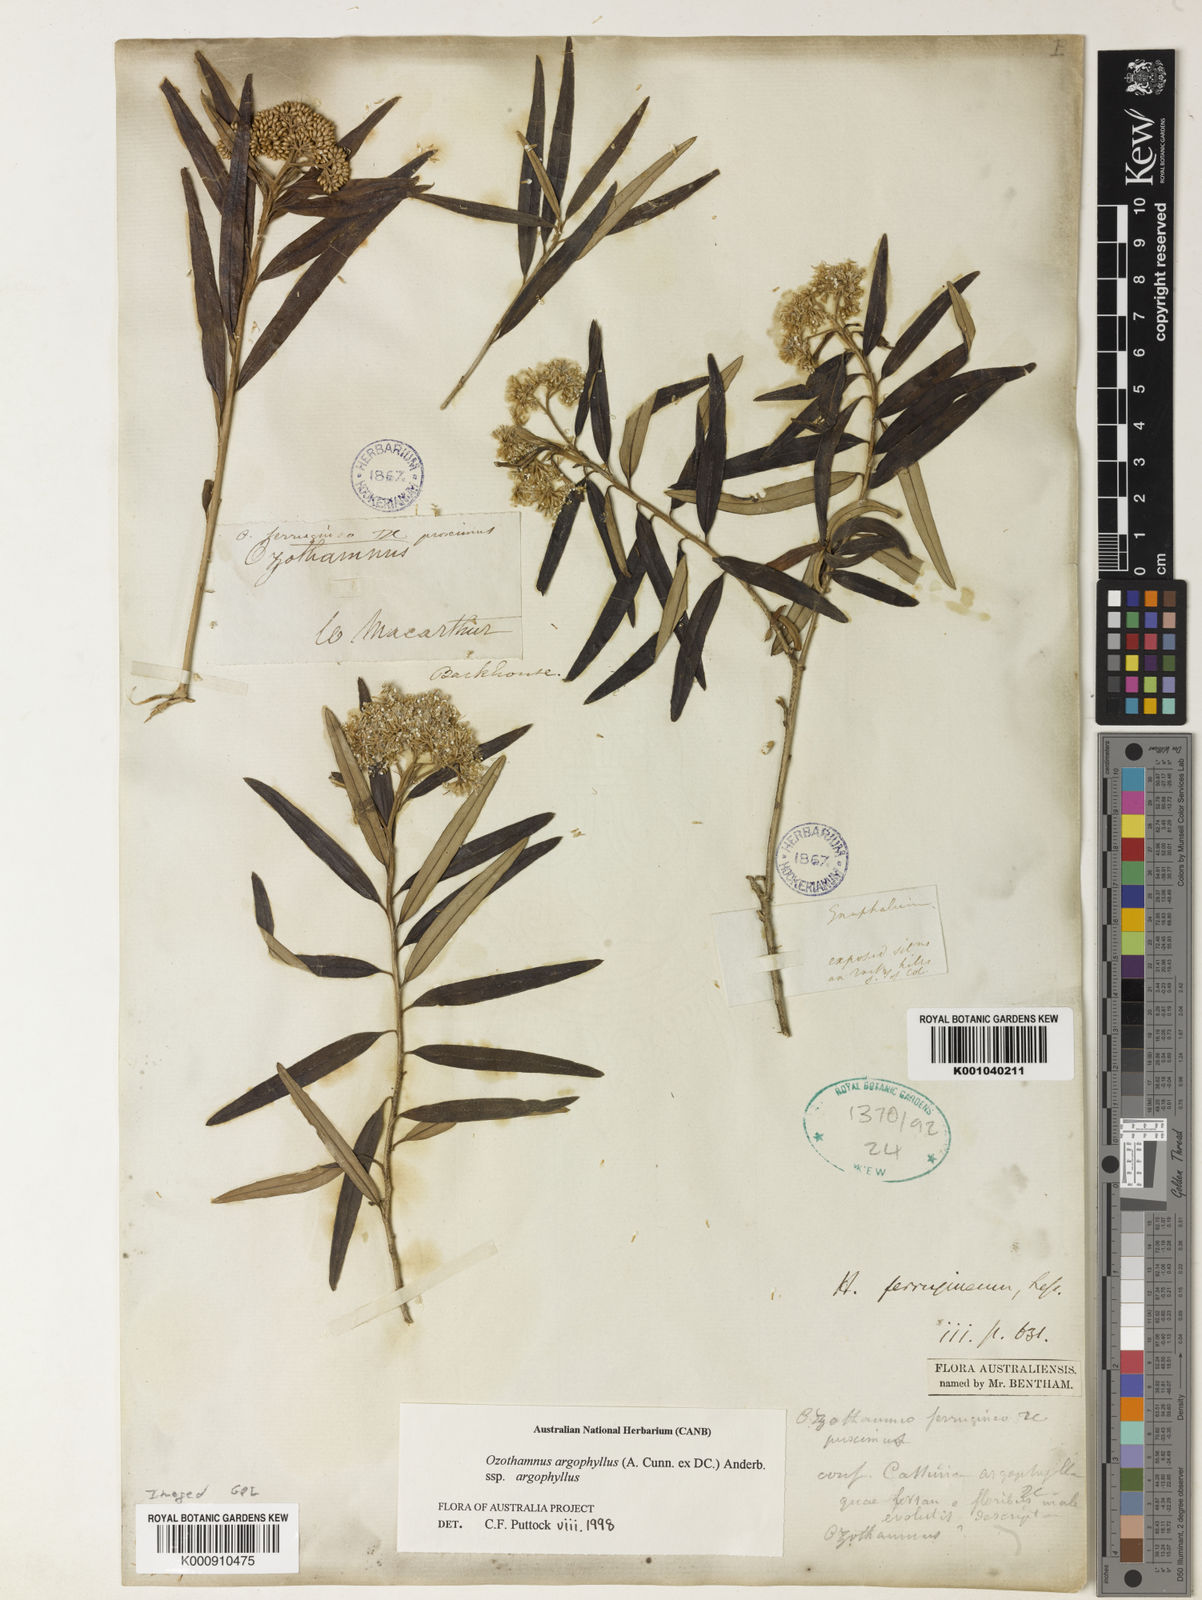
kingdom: Plantae
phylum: Tracheophyta
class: Magnoliopsida
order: Asterales
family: Asteraceae
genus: Ozothamnus
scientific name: Ozothamnus hookeri
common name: Kerosene-bush
